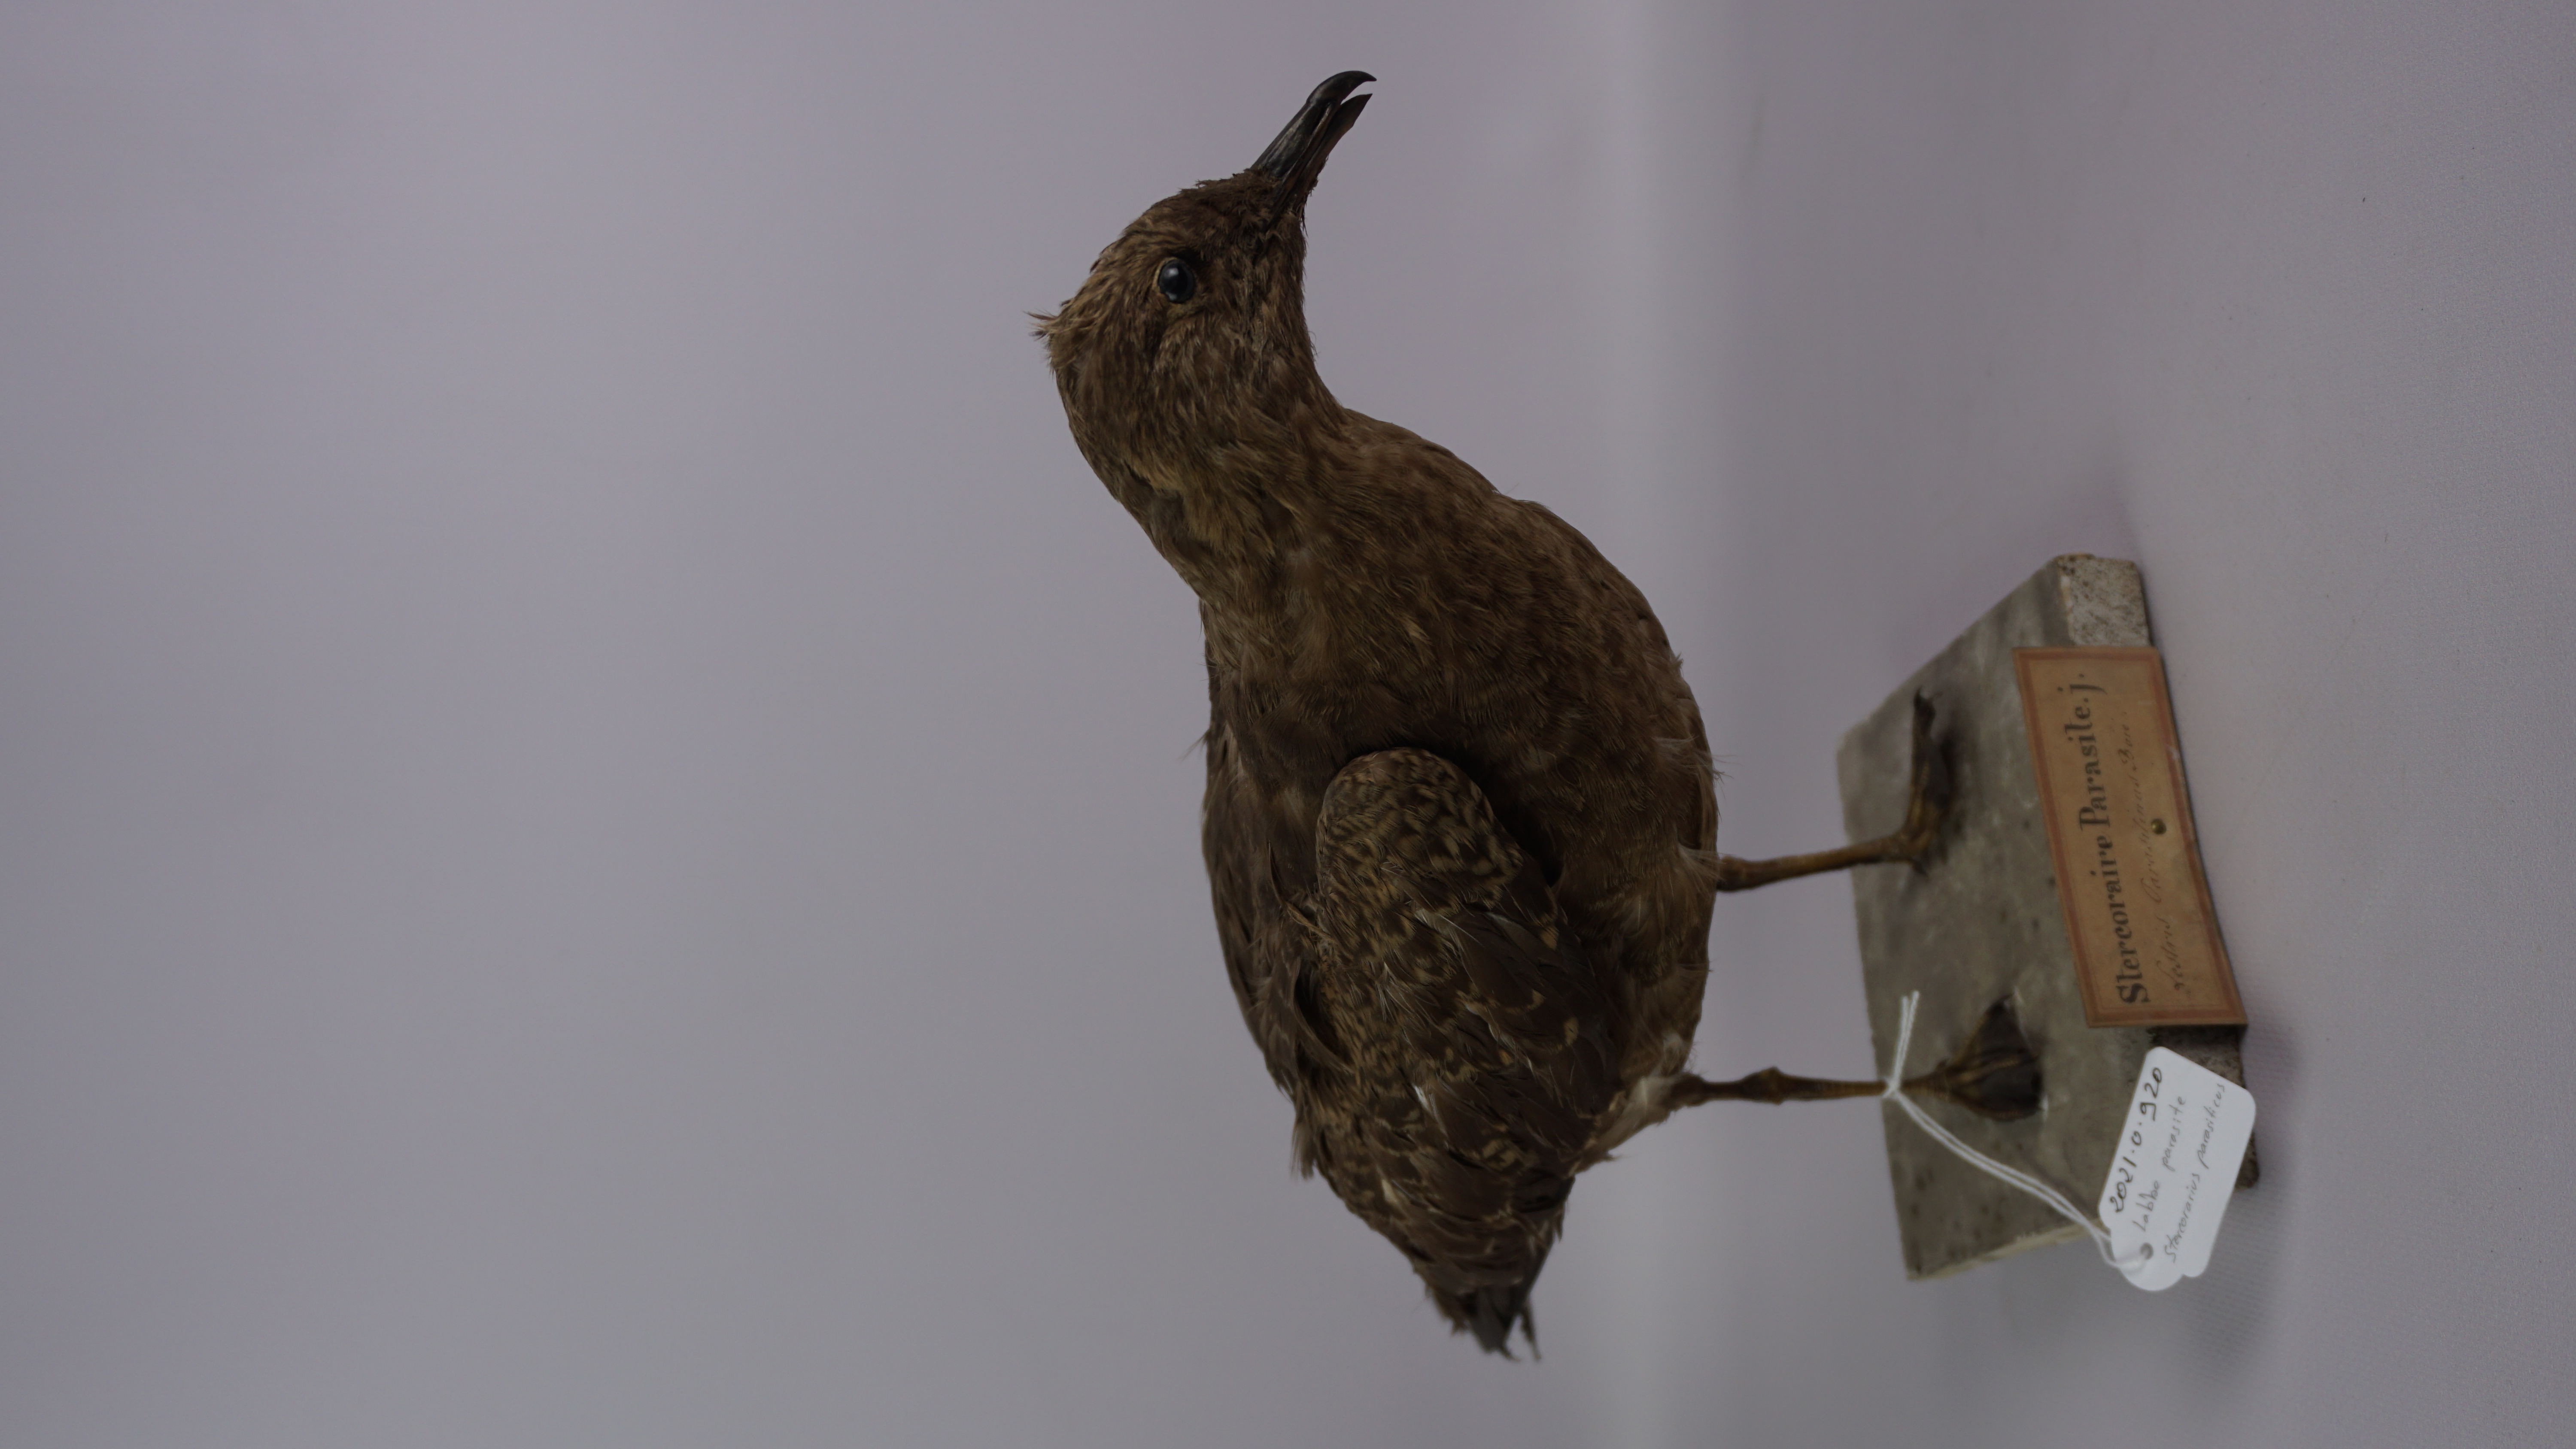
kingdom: Animalia
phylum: Chordata
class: Aves
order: Charadriiformes
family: Stercorariidae
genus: Stercorarius
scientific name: Stercorarius parasiticus
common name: Parasitic jaeger
